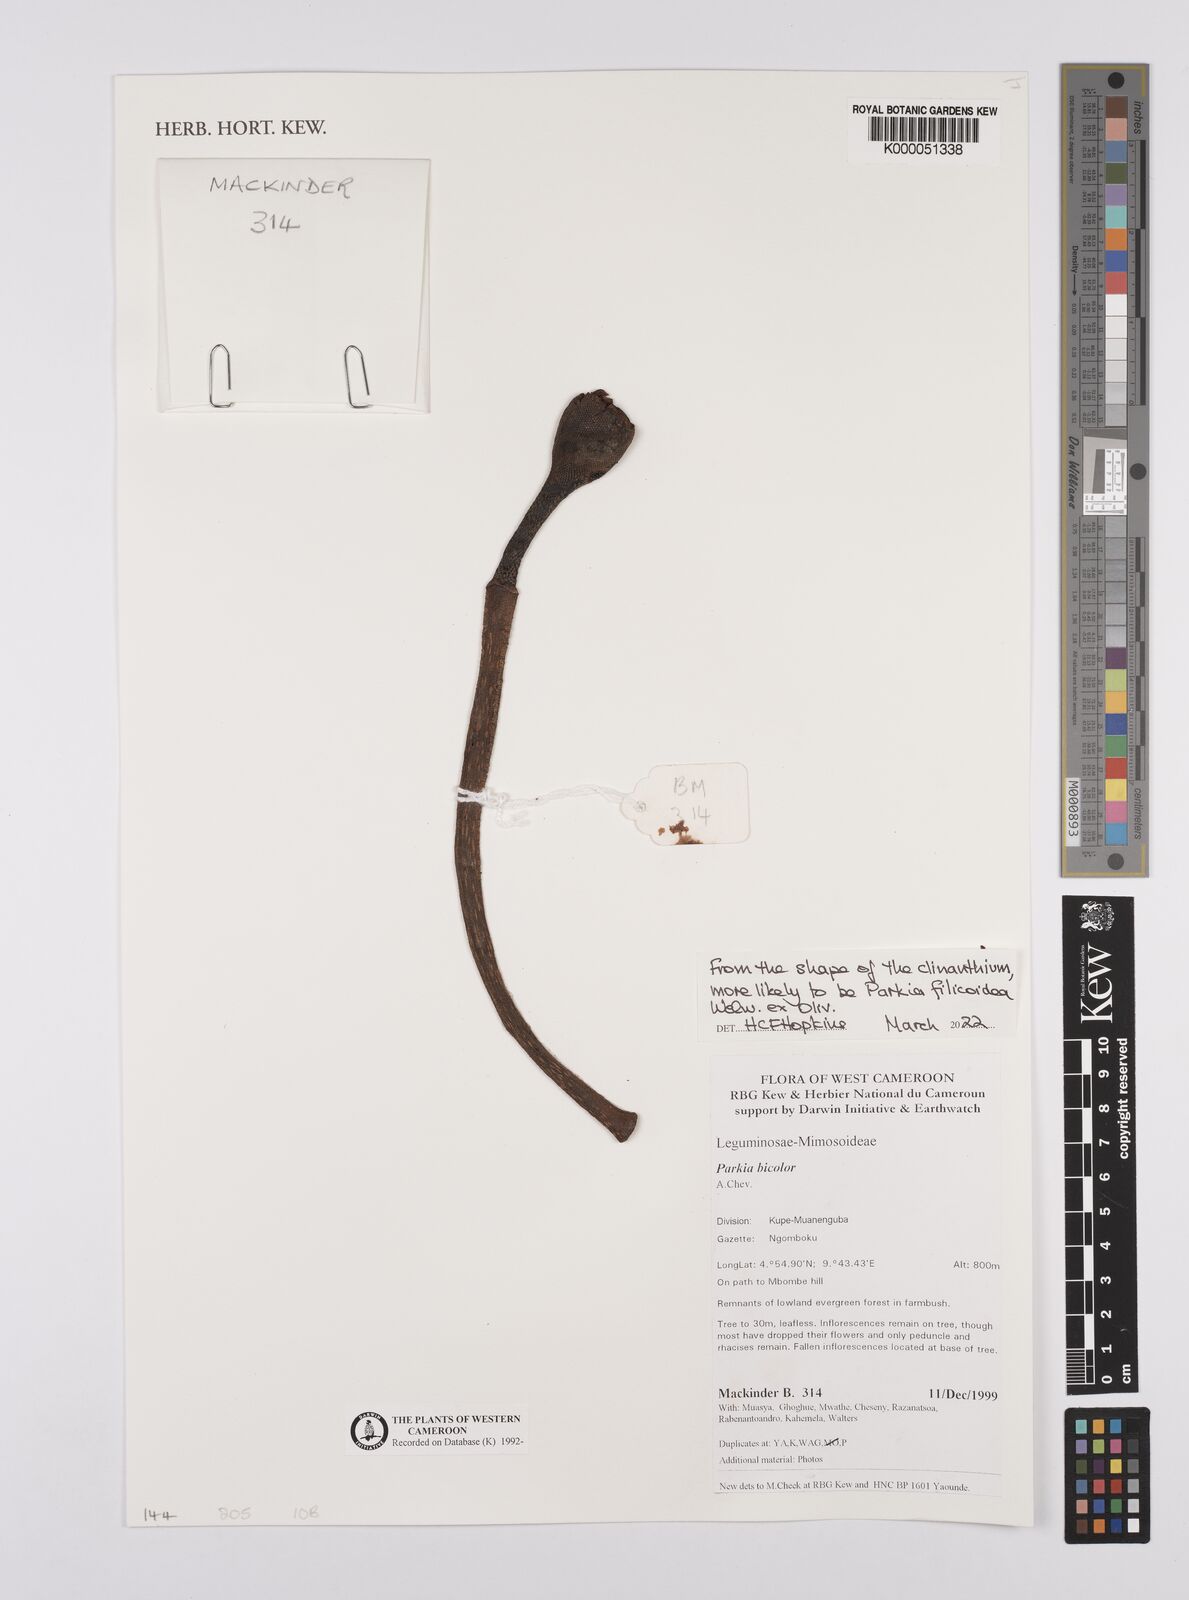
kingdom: Plantae
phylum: Tracheophyta
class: Magnoliopsida
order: Fabales
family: Fabaceae
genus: Parkia
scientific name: Parkia bicolor
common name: African locust-bean
